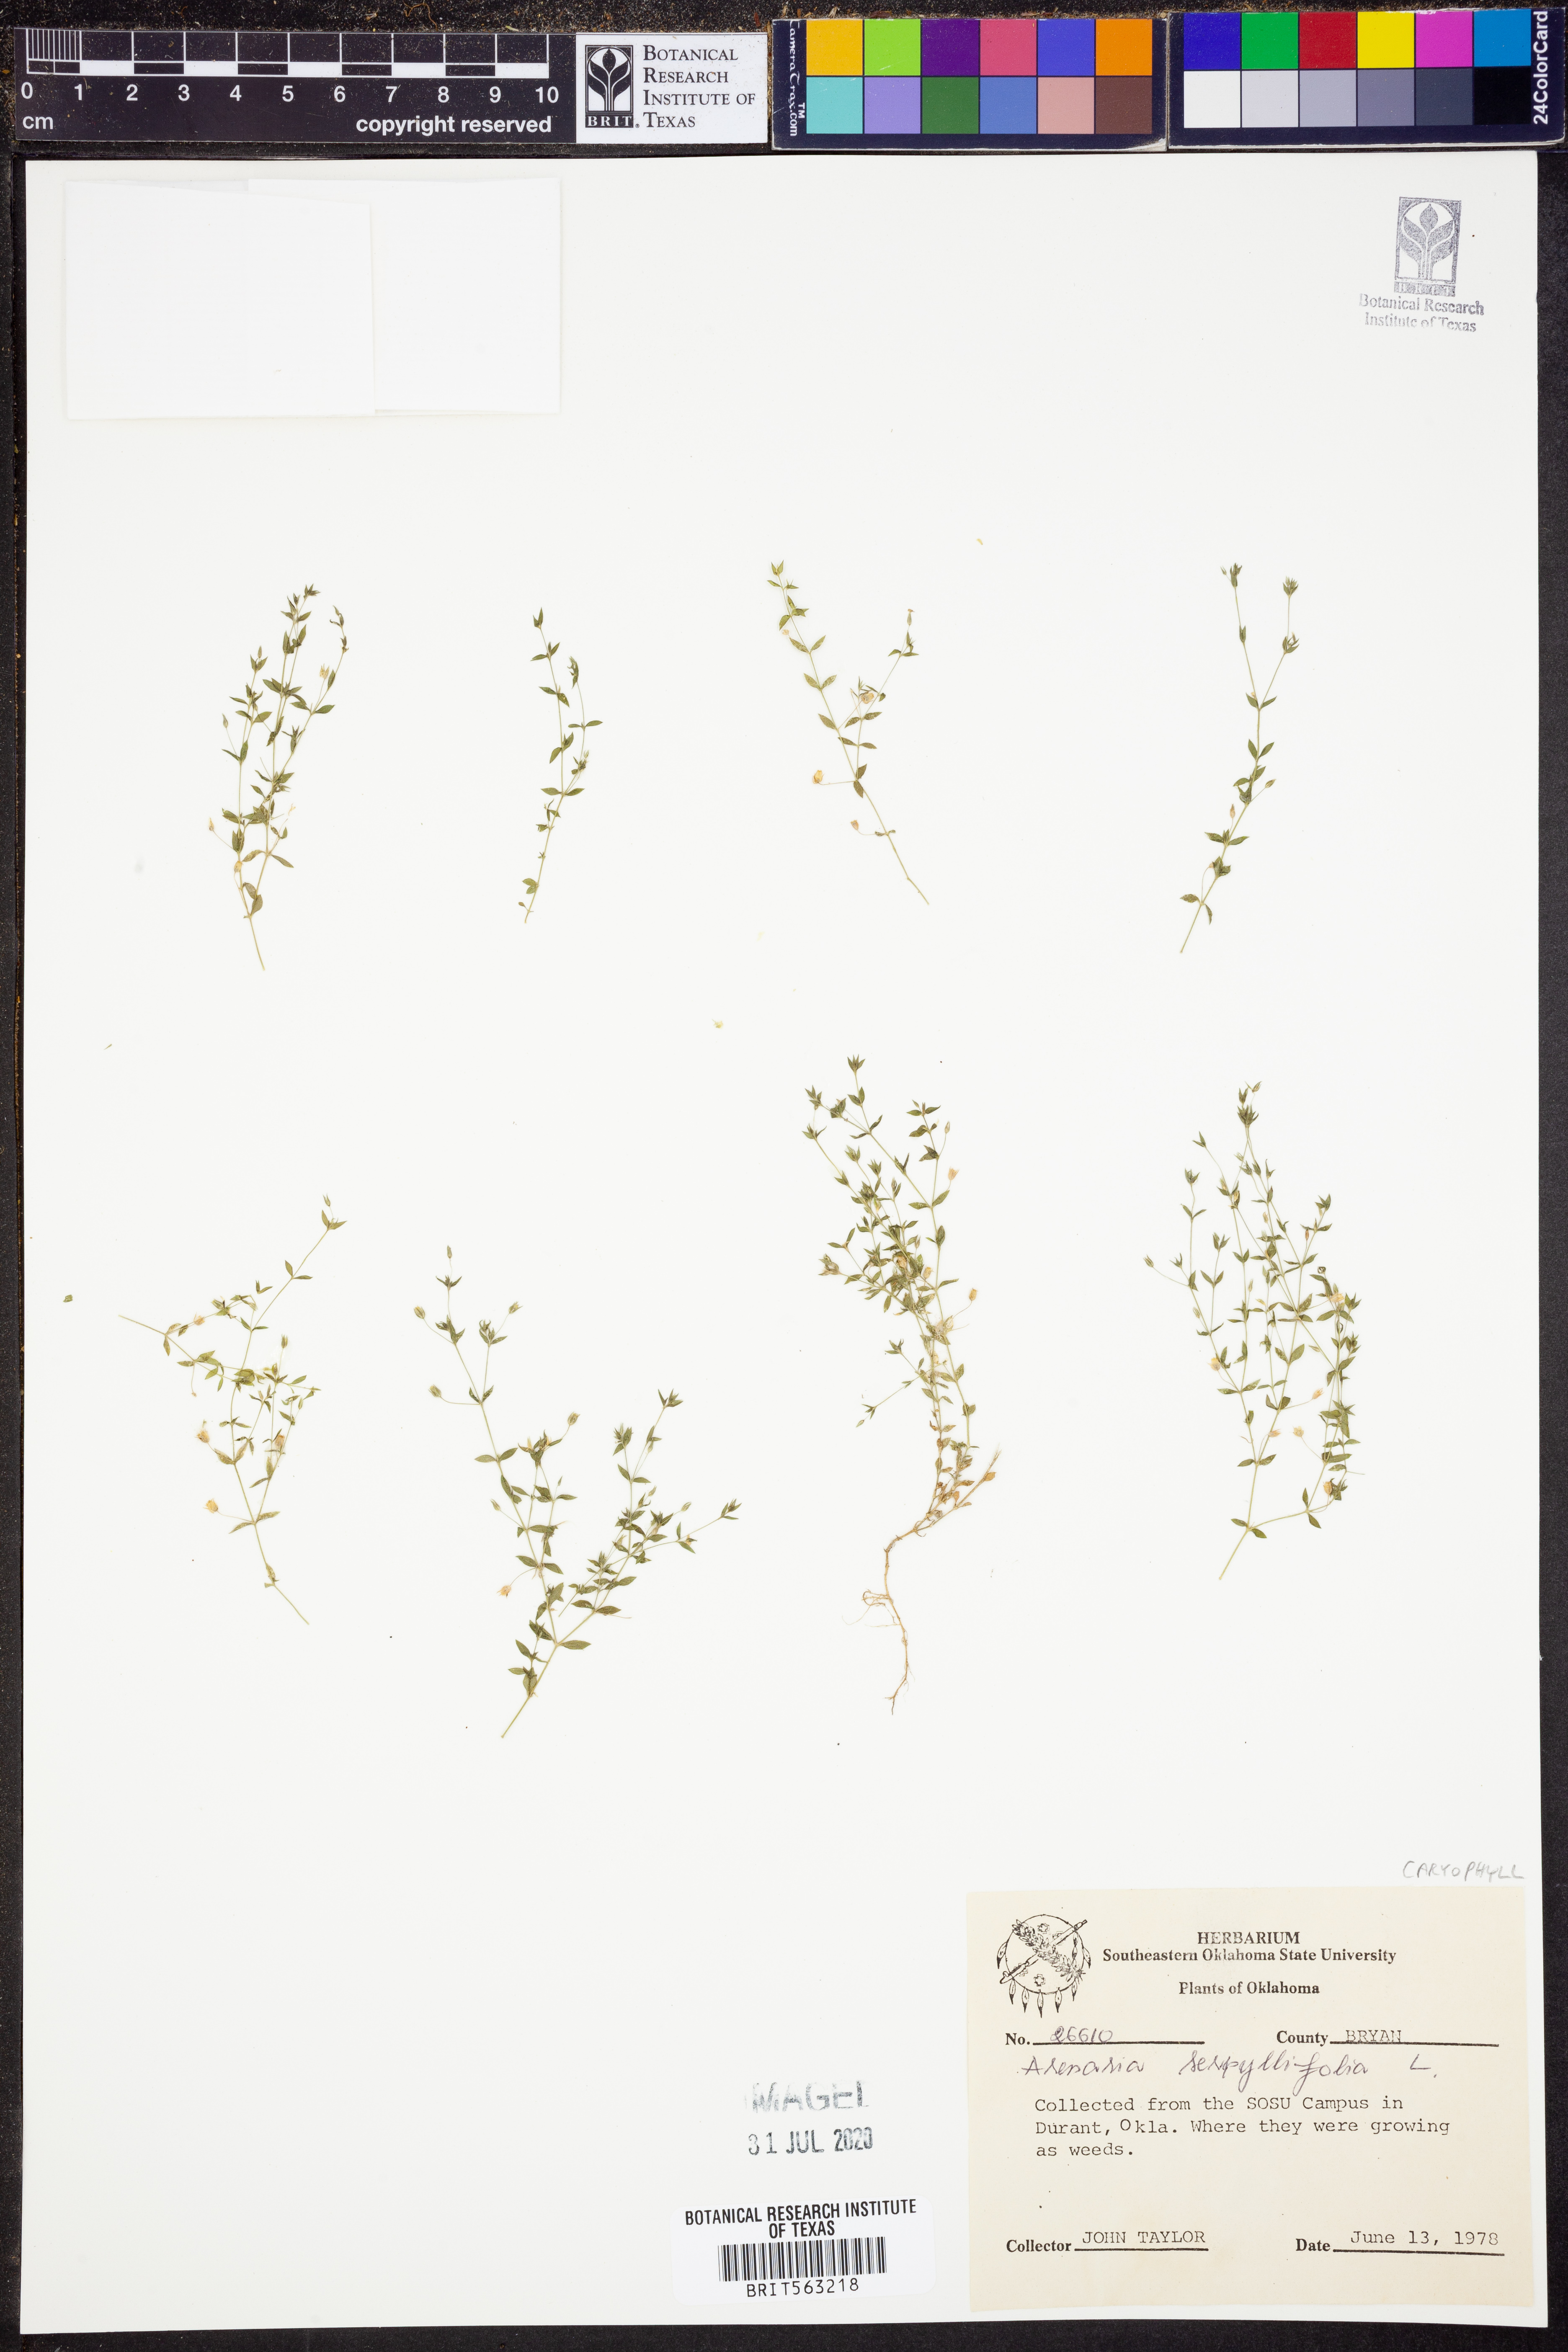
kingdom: Plantae
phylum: Tracheophyta
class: Magnoliopsida
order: Caryophyllales
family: Caryophyllaceae
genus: Arenaria
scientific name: Arenaria serpyllifolia
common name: Thyme-leaved sandwort
